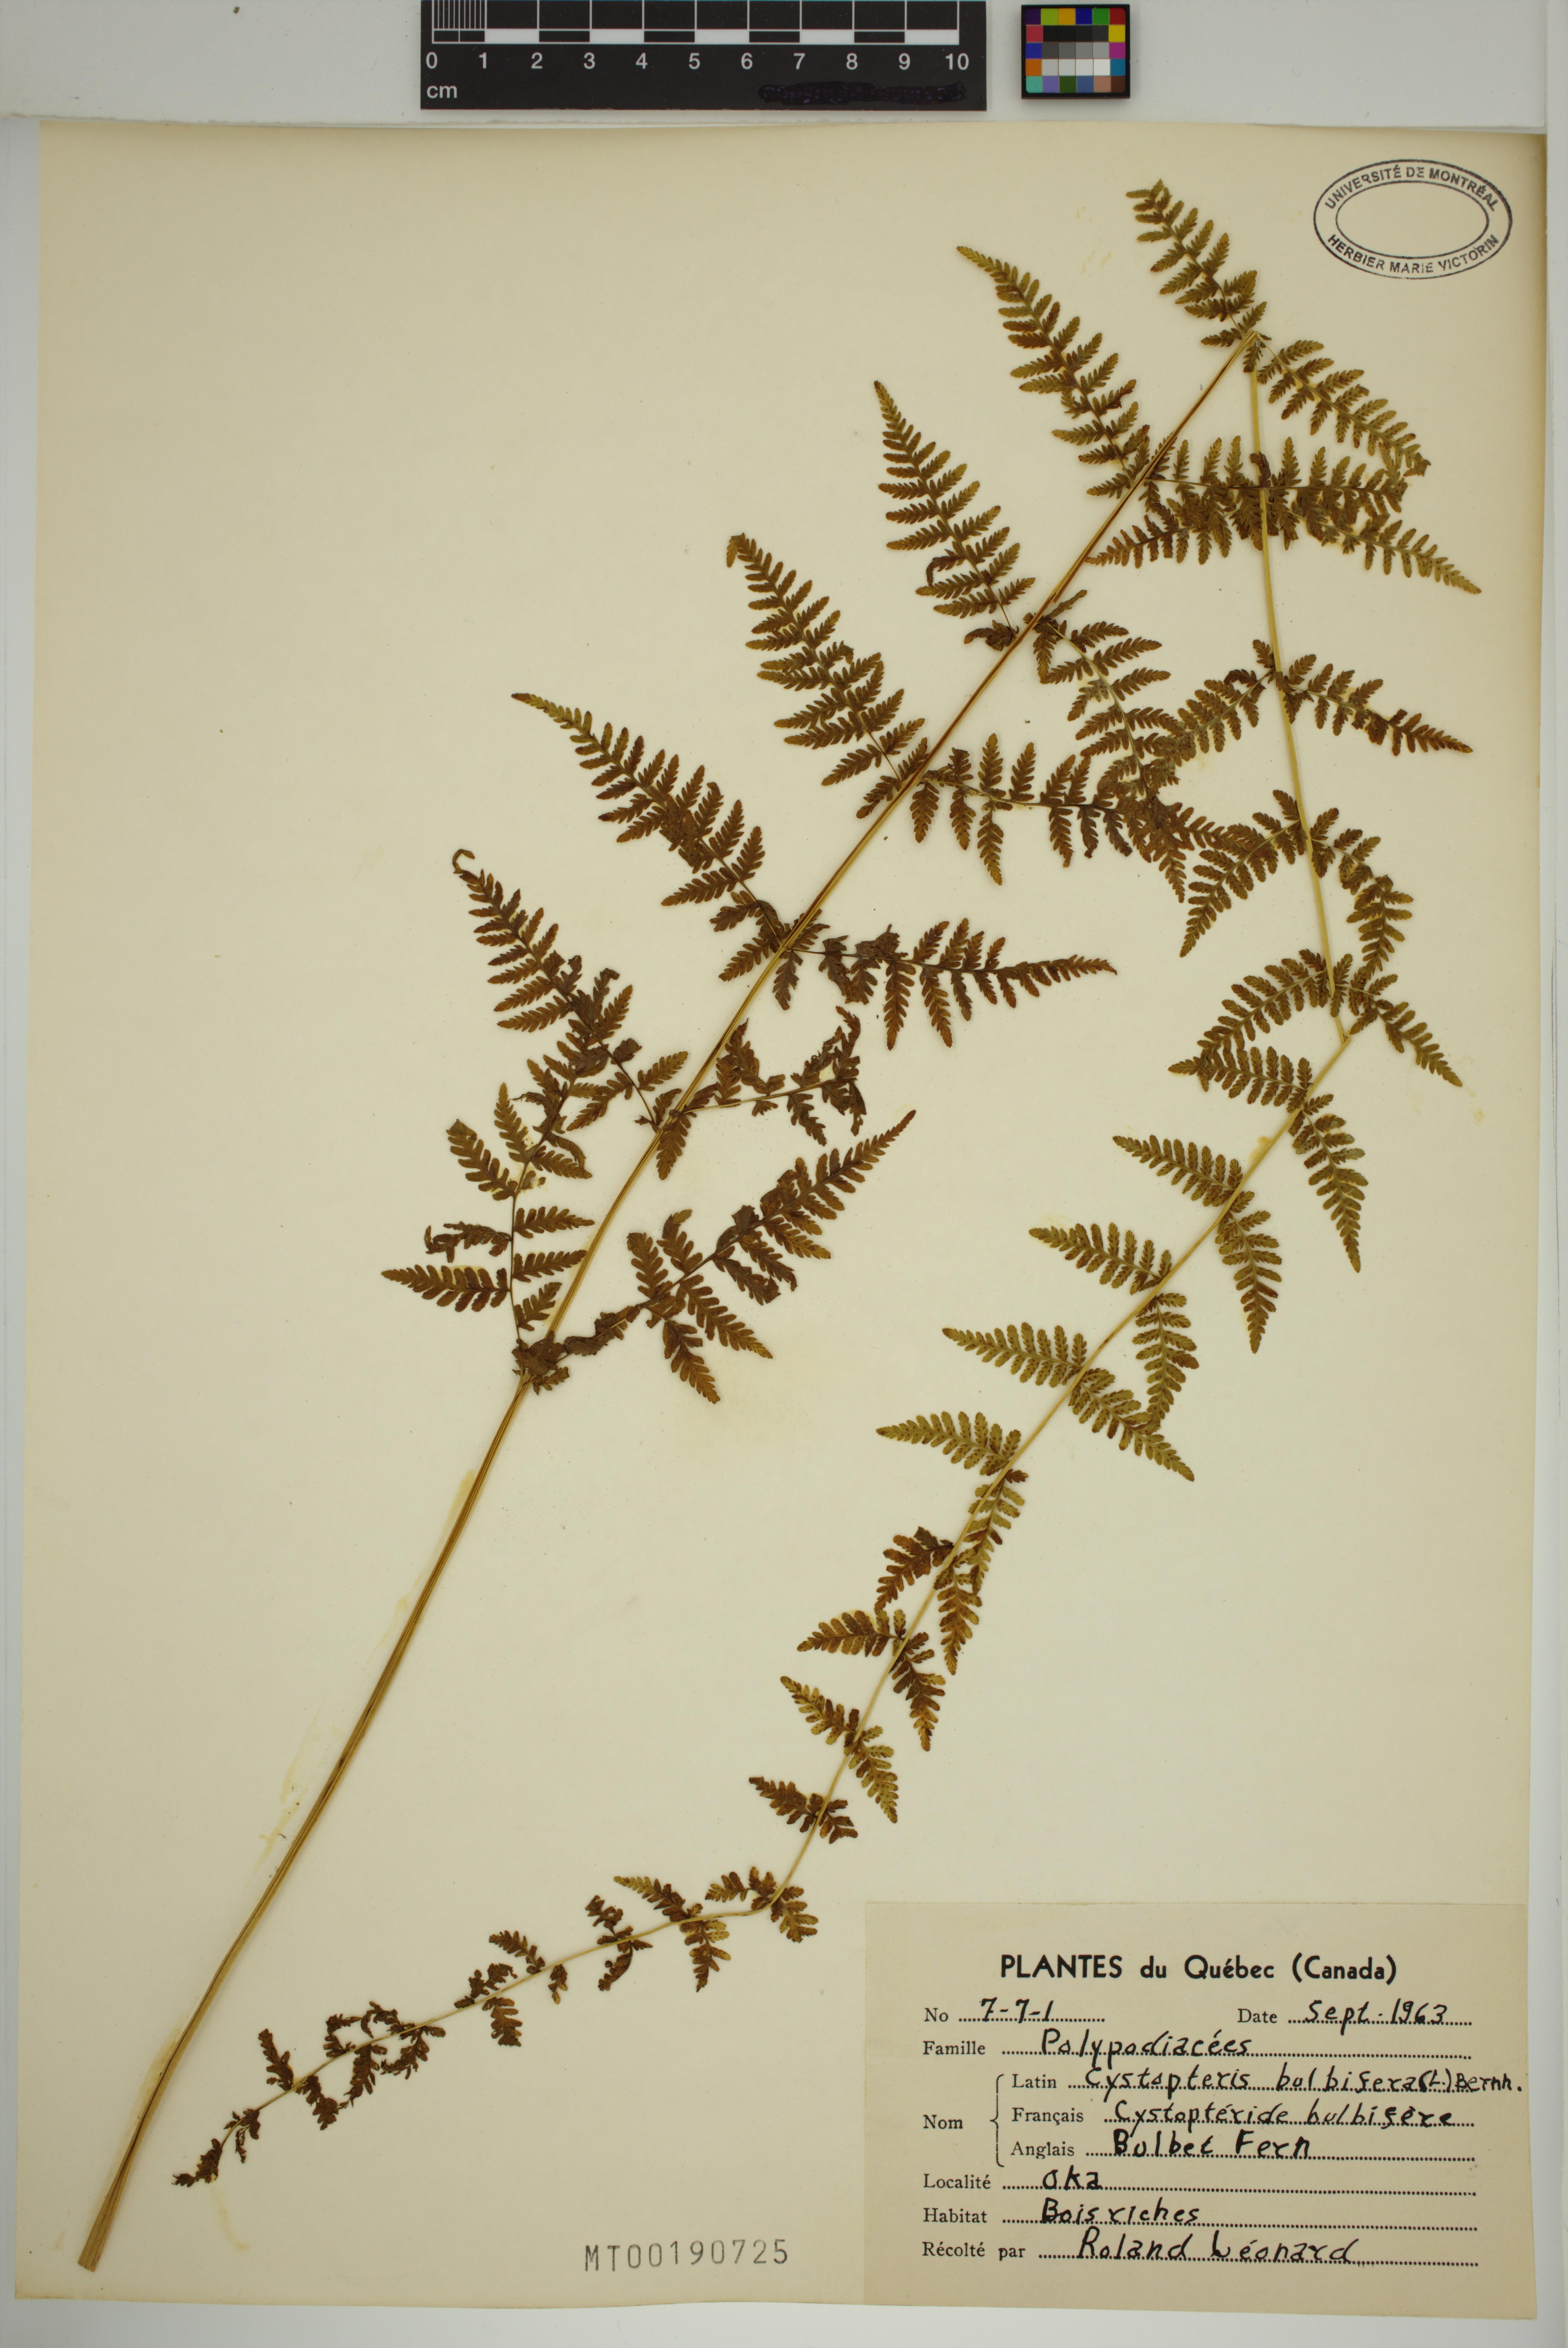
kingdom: Plantae
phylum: Tracheophyta
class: Polypodiopsida
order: Polypodiales
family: Cystopteridaceae
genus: Cystopteris
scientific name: Cystopteris bulbifera
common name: Bulblet bladder fern
